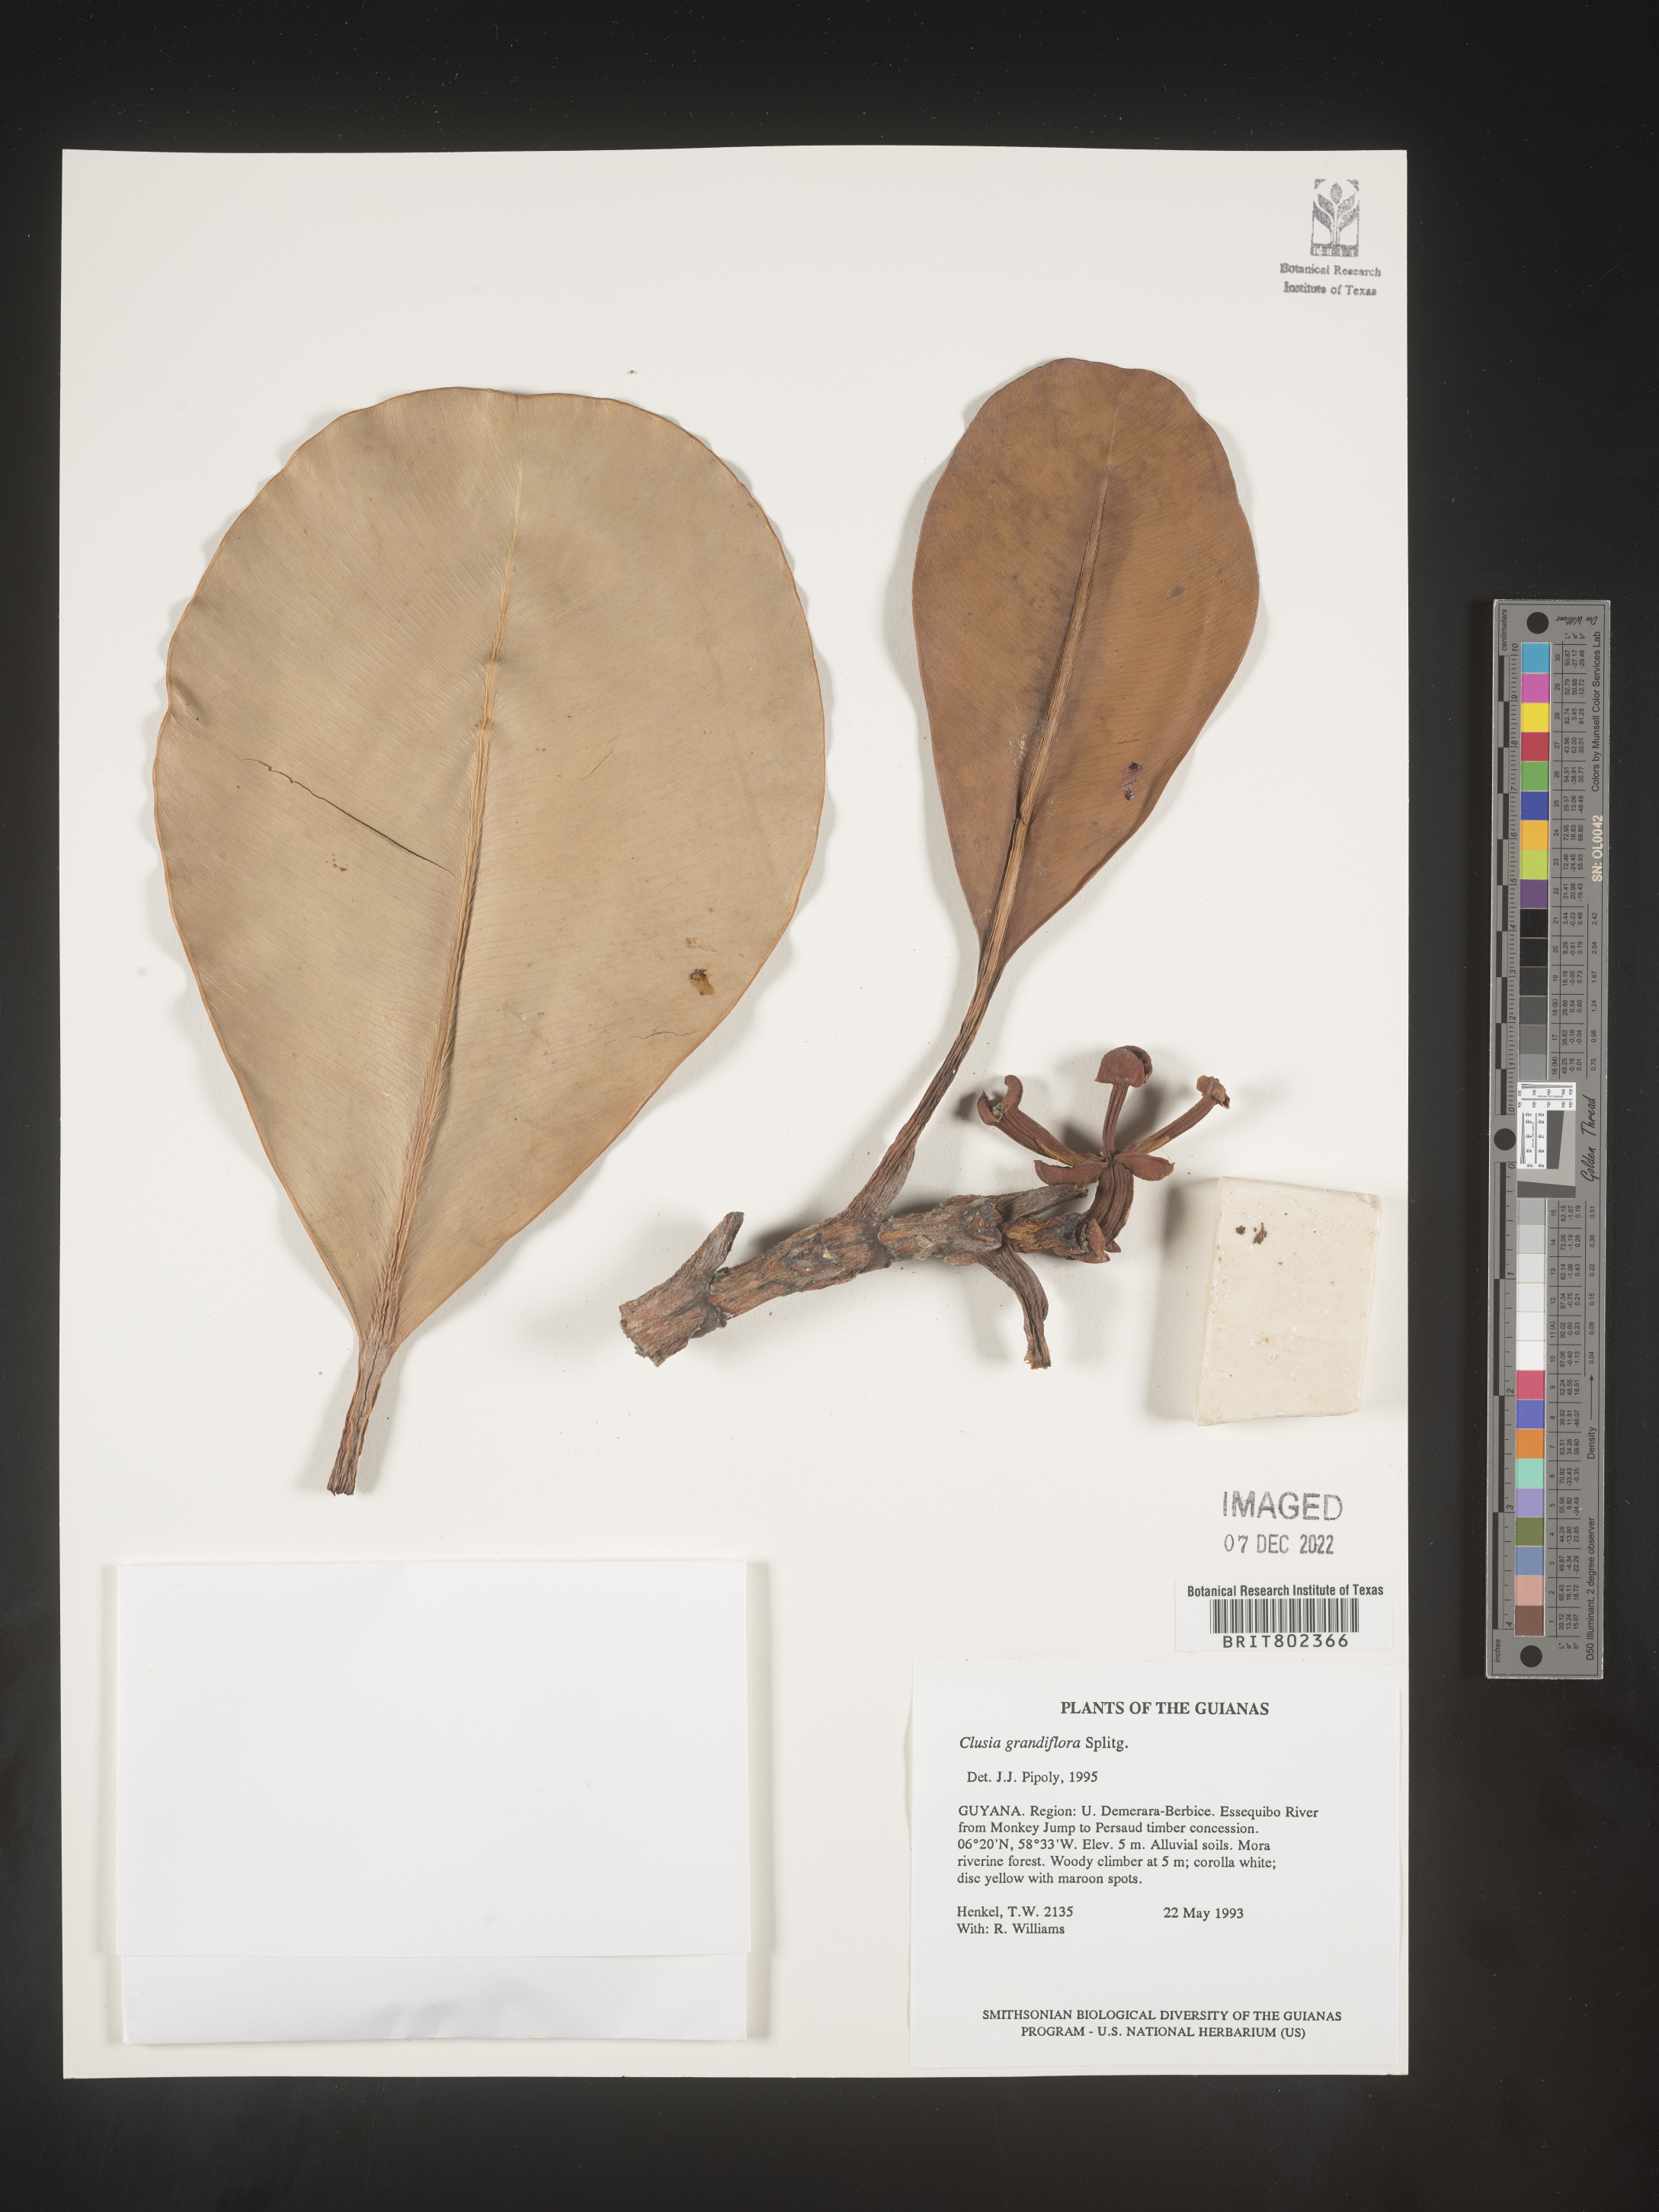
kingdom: Plantae
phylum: Tracheophyta
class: Magnoliopsida
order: Malpighiales
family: Clusiaceae
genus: Clusia
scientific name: Clusia grandiflora
